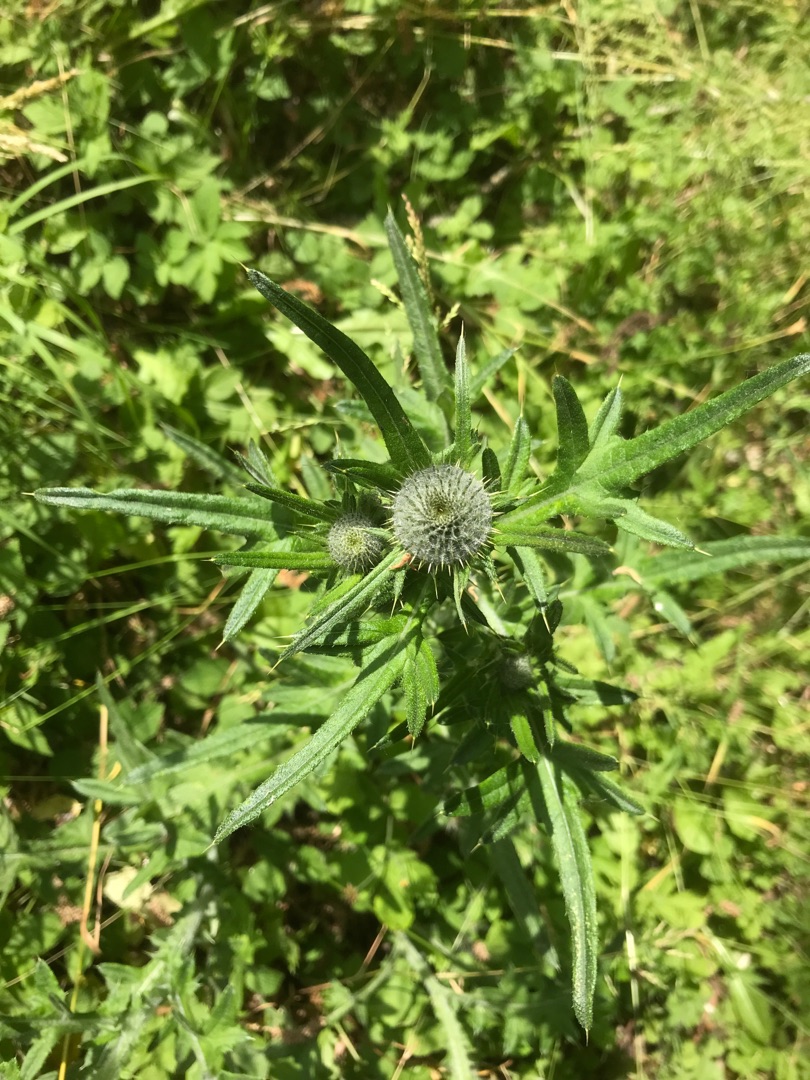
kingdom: Plantae
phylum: Tracheophyta
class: Magnoliopsida
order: Asterales
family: Asteraceae
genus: Cirsium
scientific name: Cirsium vulgare
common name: Horse-tidsel
